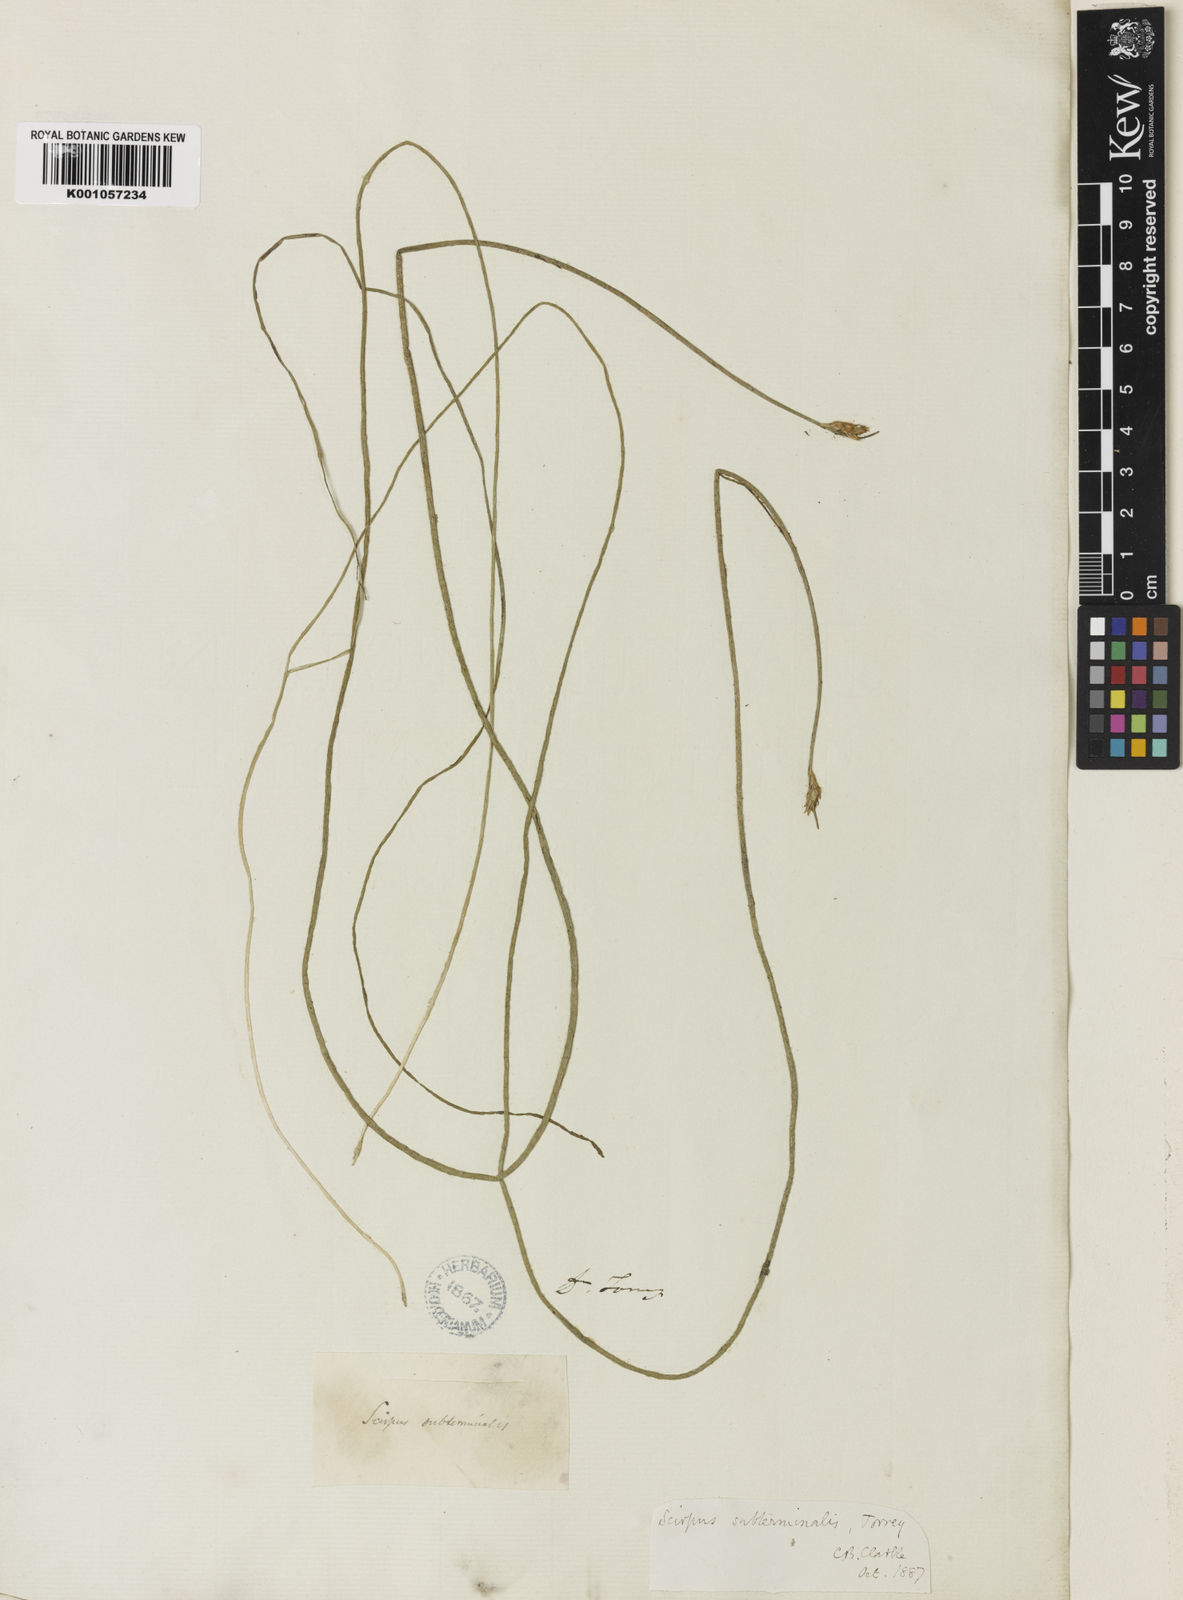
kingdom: Plantae
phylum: Tracheophyta
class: Liliopsida
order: Poales
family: Cyperaceae
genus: Schoenoplectus
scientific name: Schoenoplectus
